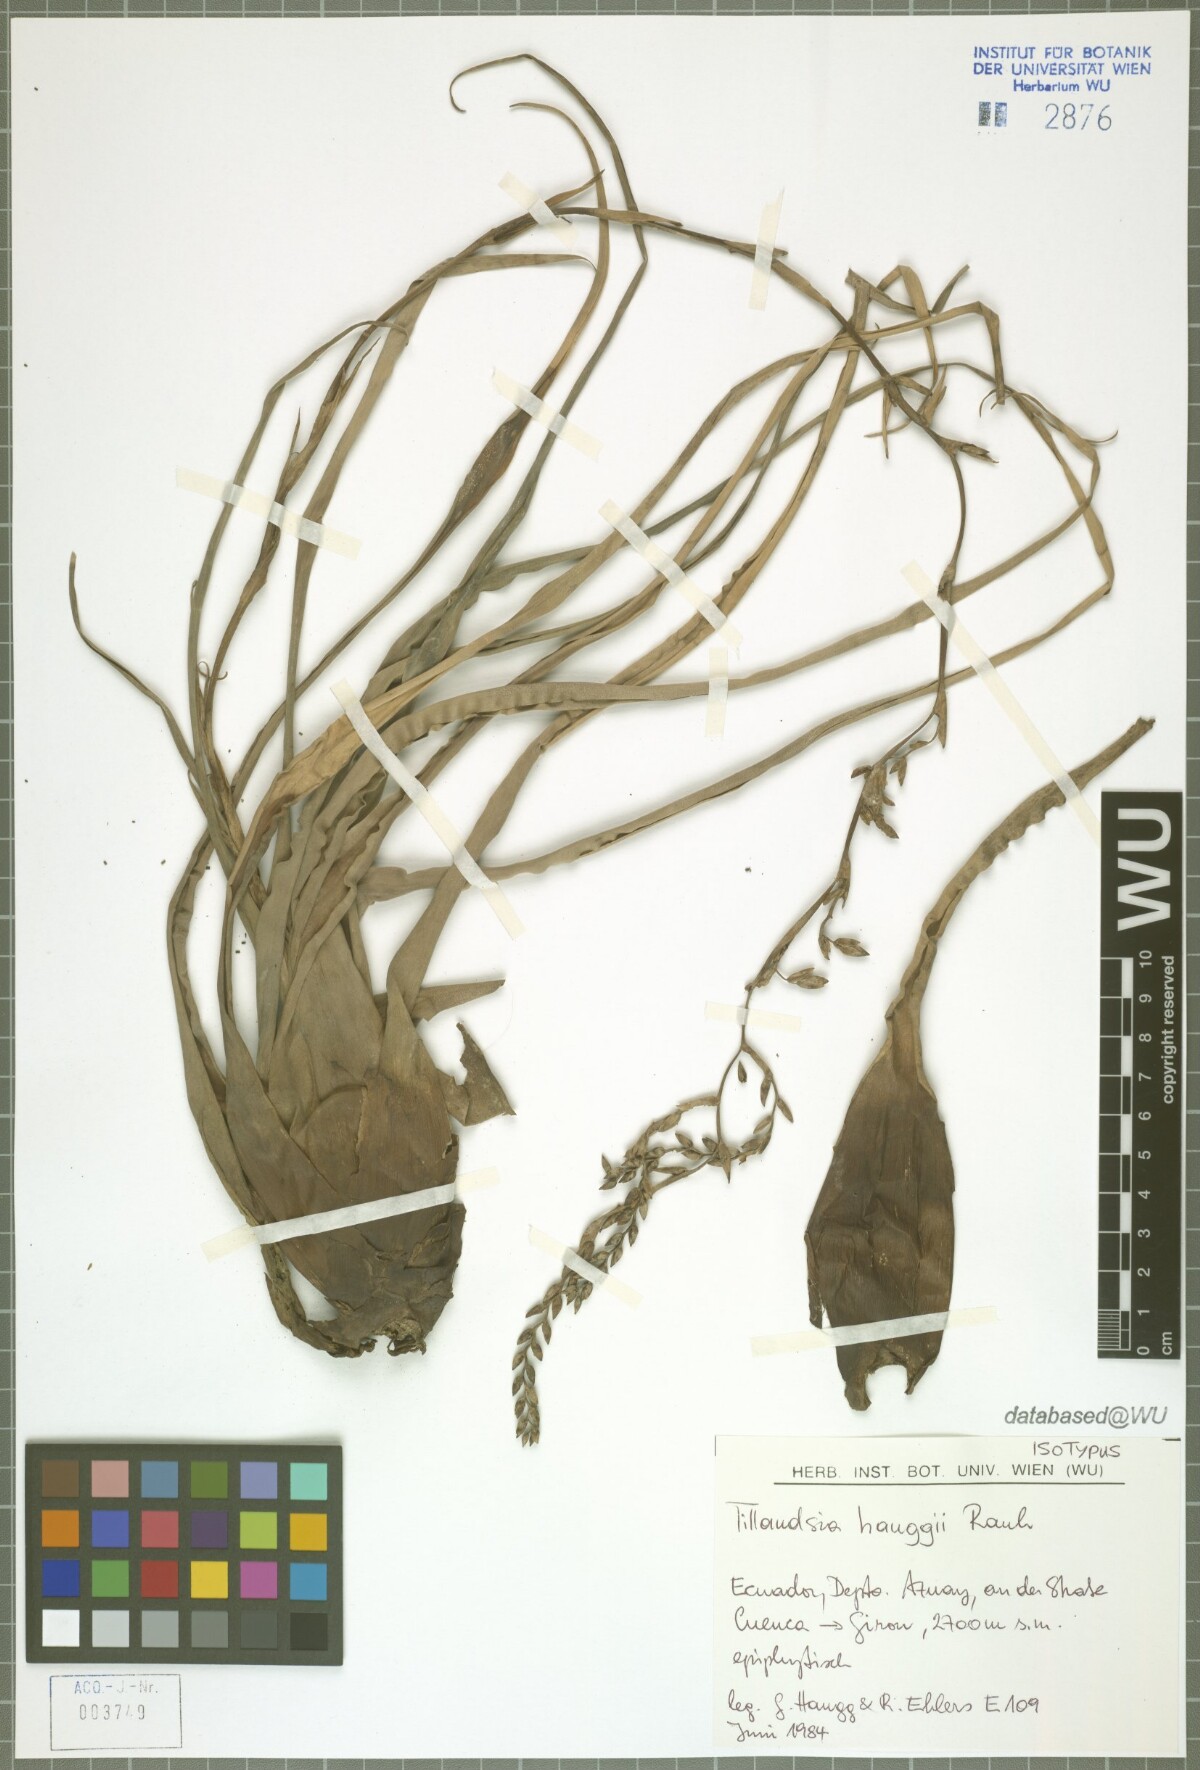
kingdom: Plantae
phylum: Tracheophyta
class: Liliopsida
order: Poales
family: Bromeliaceae
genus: Racinaea
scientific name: Racinaea hauggiae
